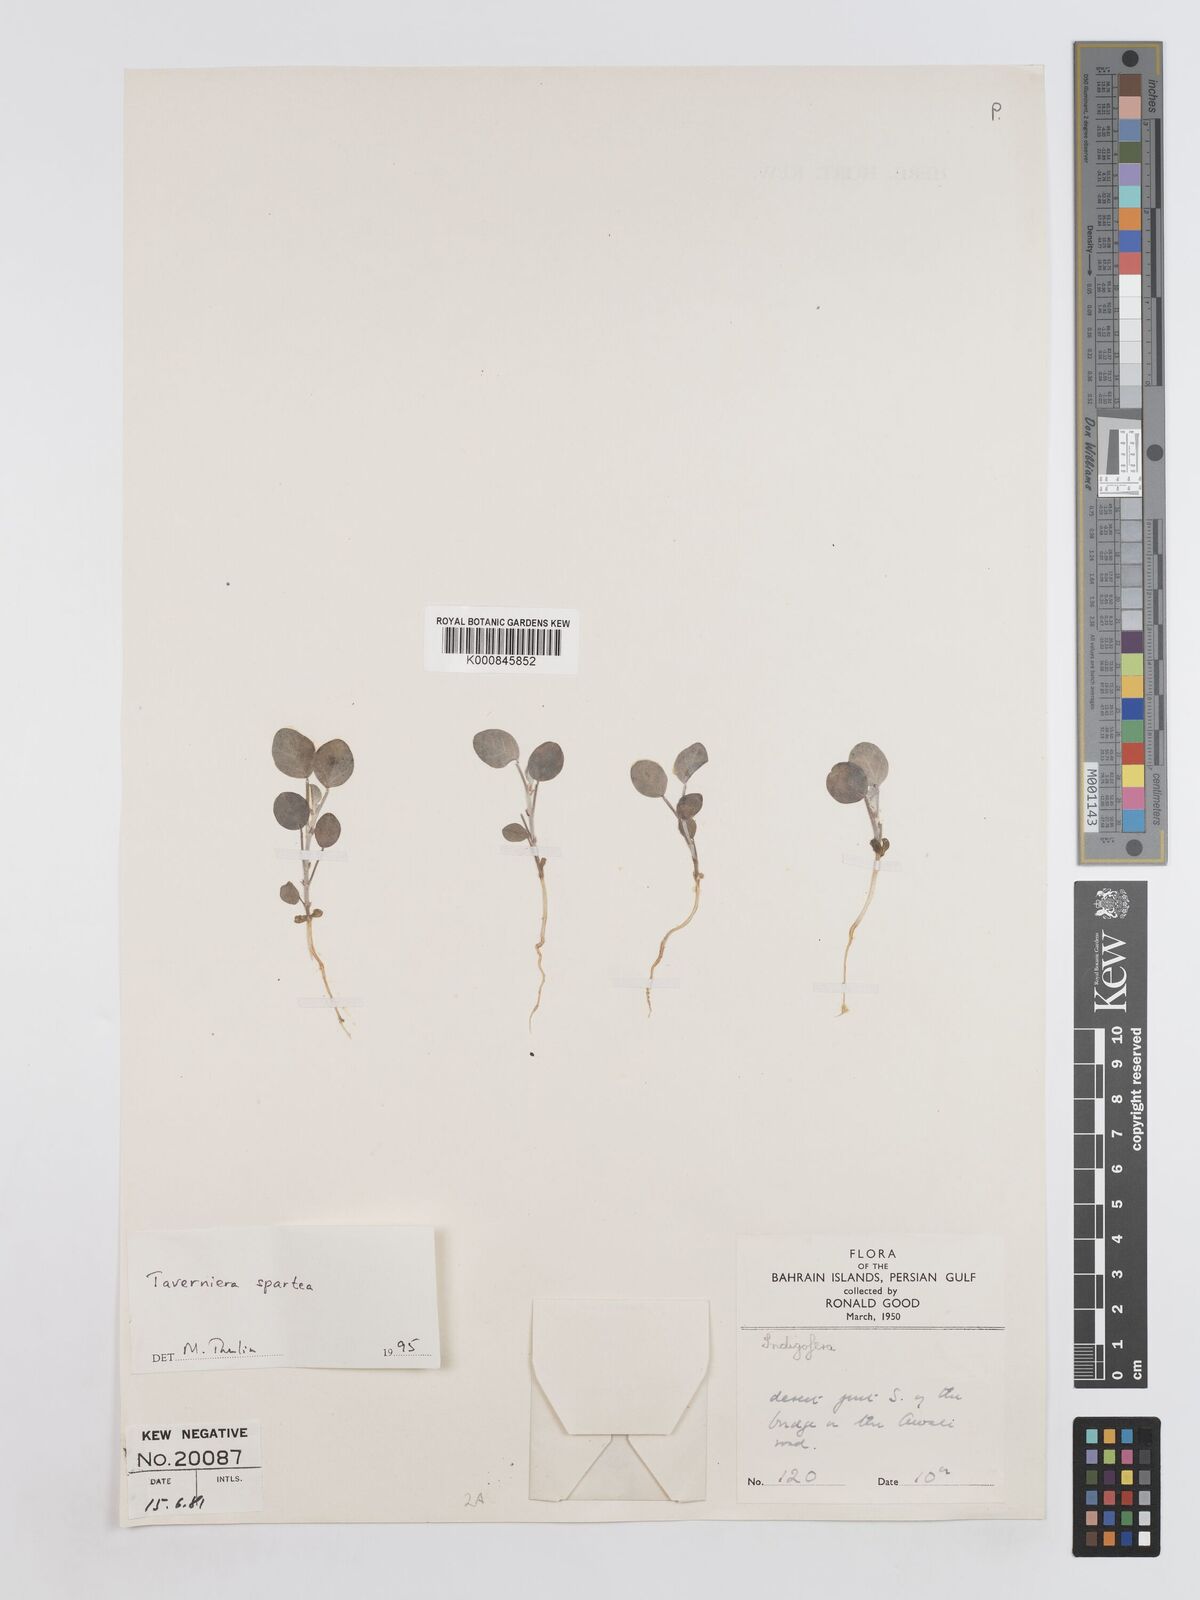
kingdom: Plantae
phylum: Tracheophyta
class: Magnoliopsida
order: Fabales
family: Fabaceae
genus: Taverniera
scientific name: Taverniera spartea
